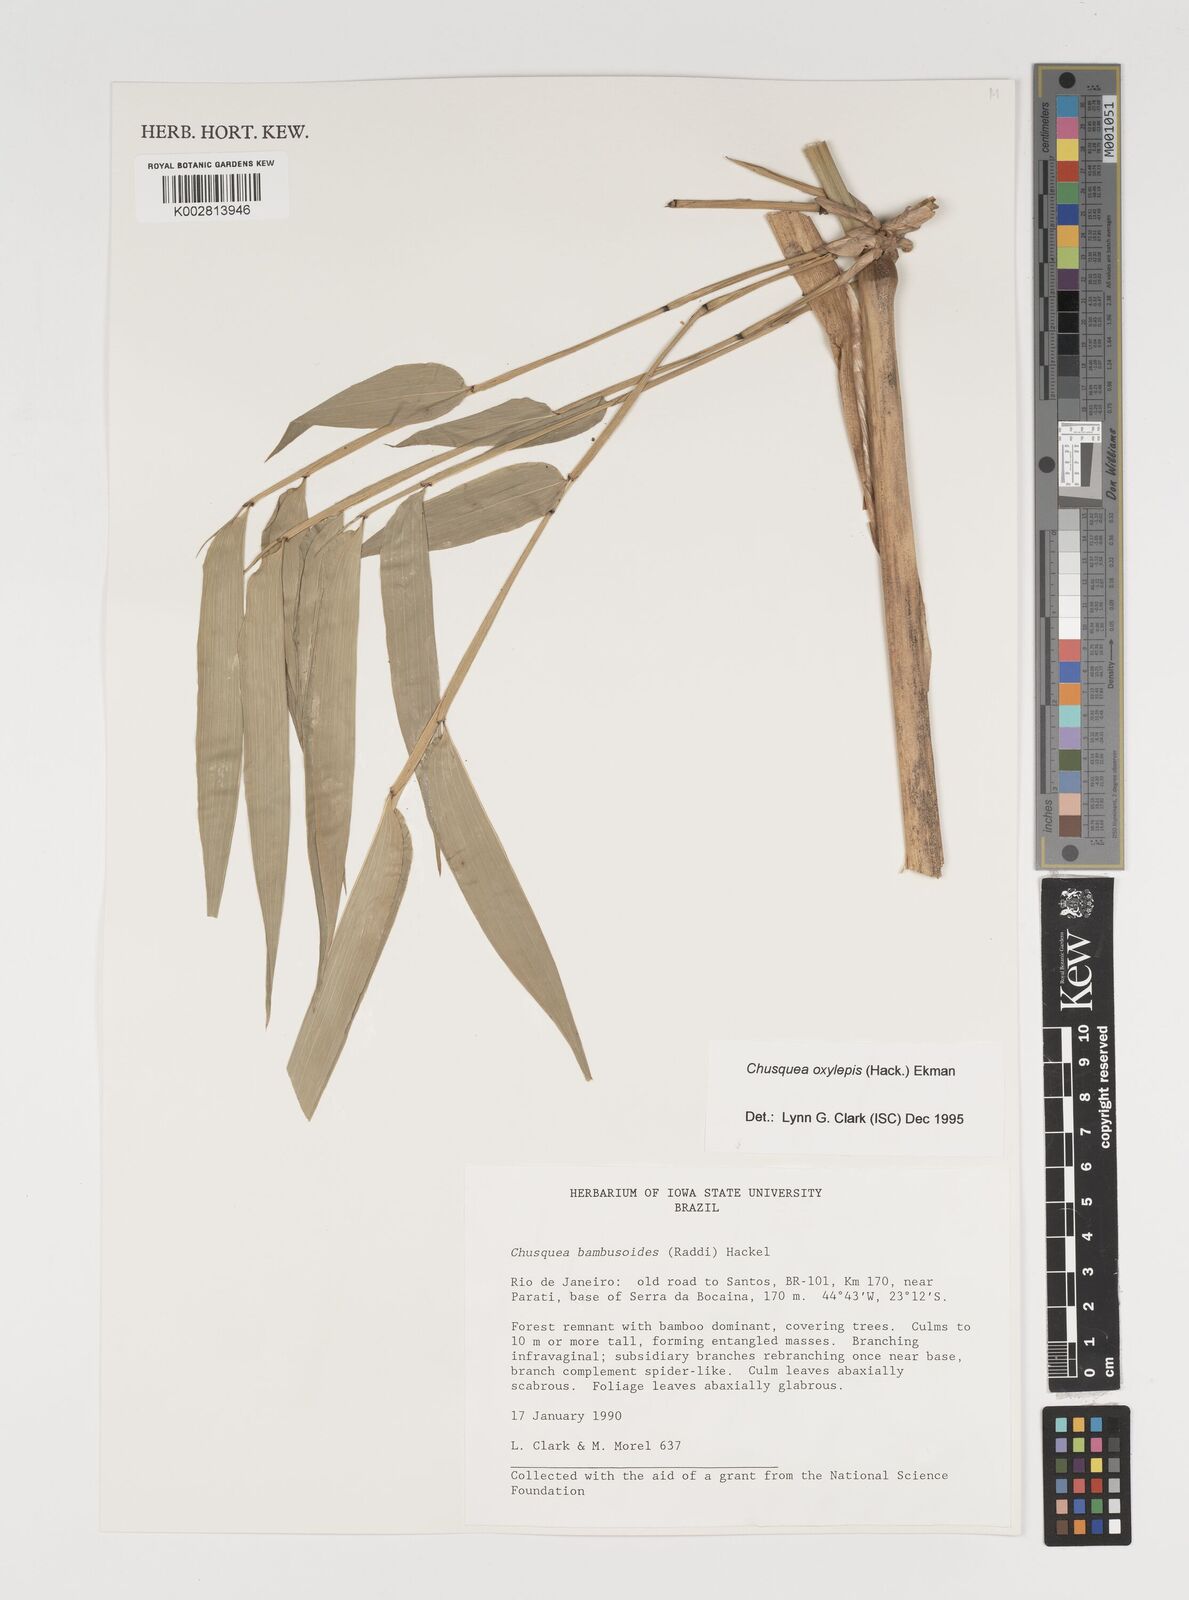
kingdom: Plantae
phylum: Tracheophyta
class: Liliopsida
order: Poales
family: Poaceae
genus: Chusquea
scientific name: Chusquea oxylepis
